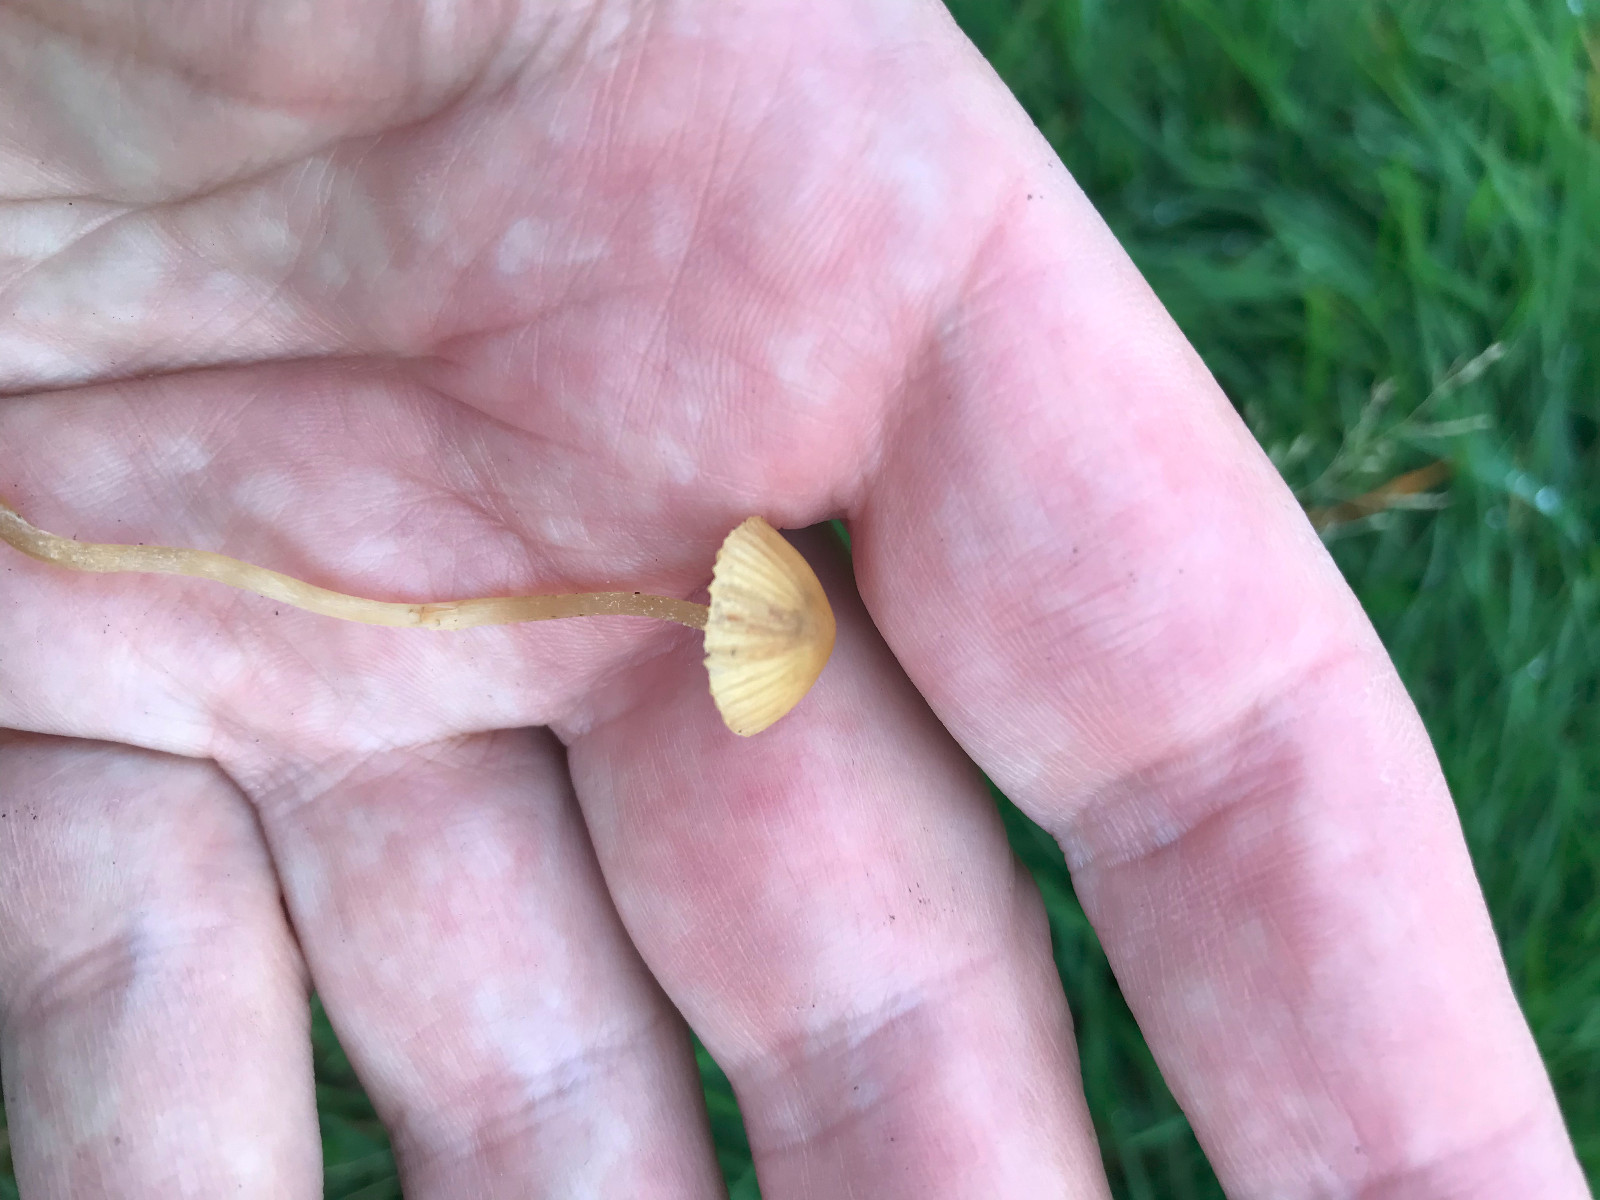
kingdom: Fungi
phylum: Basidiomycota
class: Agaricomycetes
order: Agaricales
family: Hymenogastraceae
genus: Galerina
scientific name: Galerina
